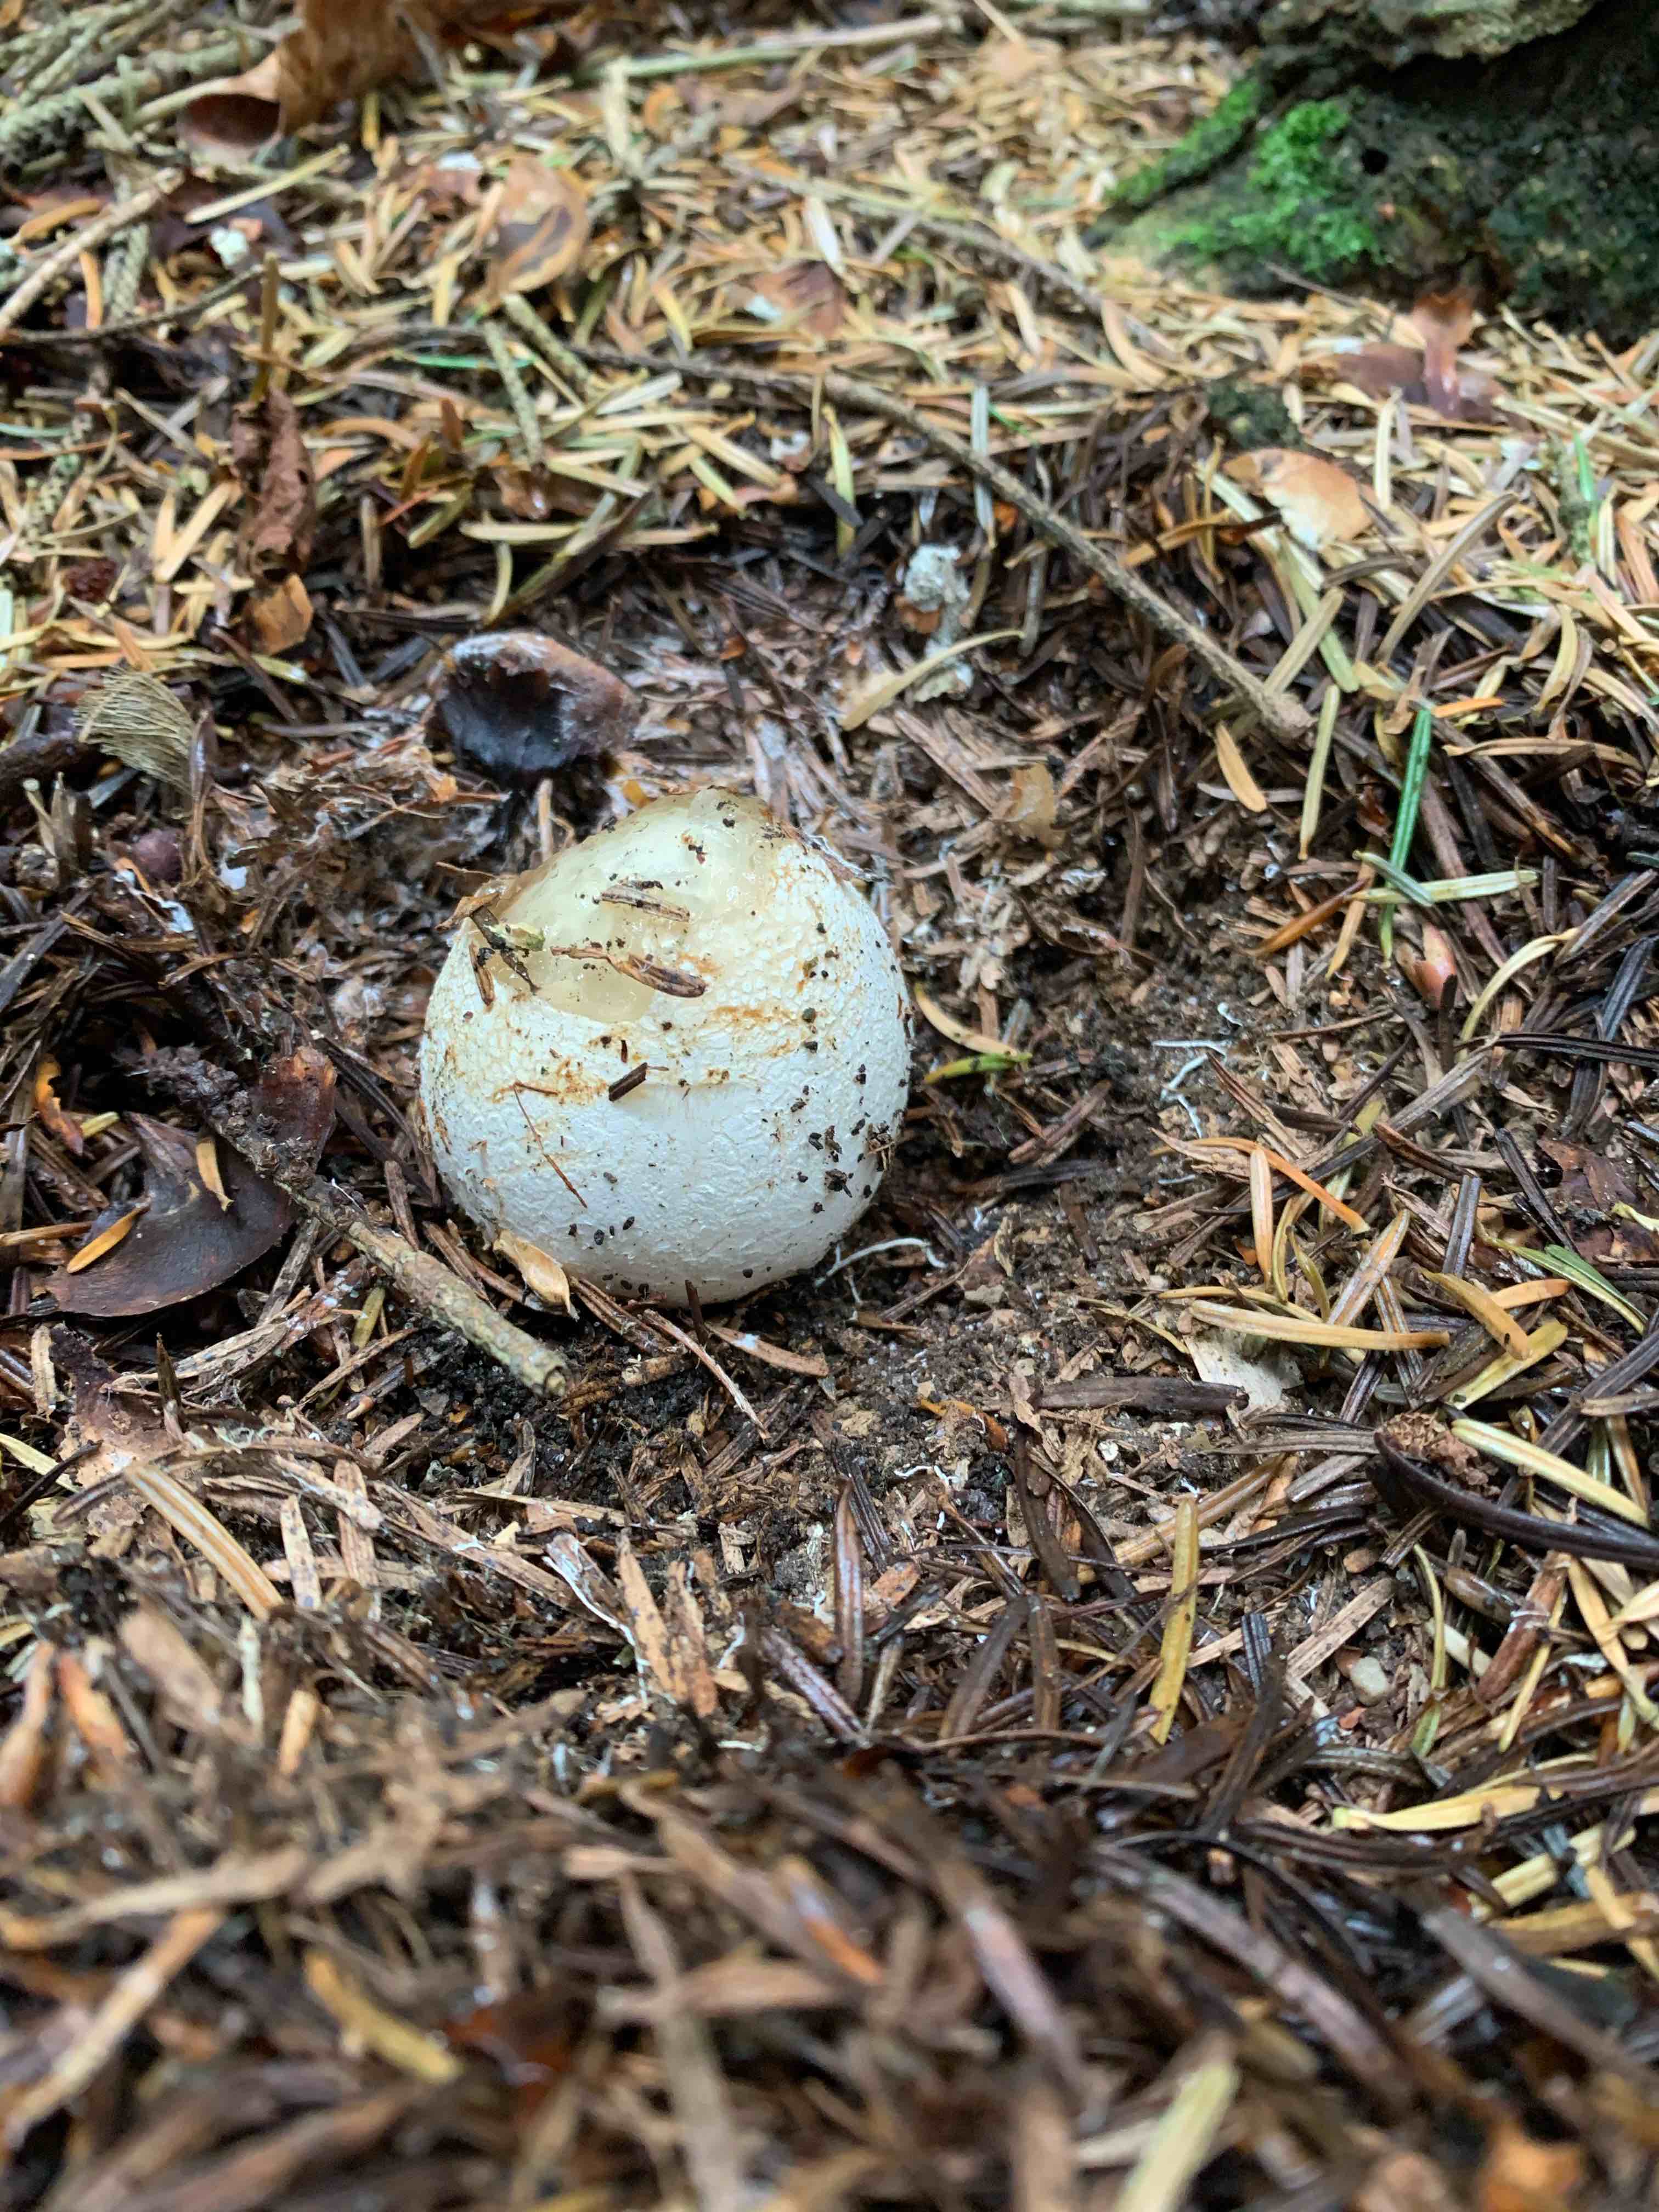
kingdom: Fungi
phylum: Basidiomycota
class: Agaricomycetes
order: Phallales
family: Phallaceae
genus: Phallus
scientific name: Phallus impudicus
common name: almindelig stinksvamp
